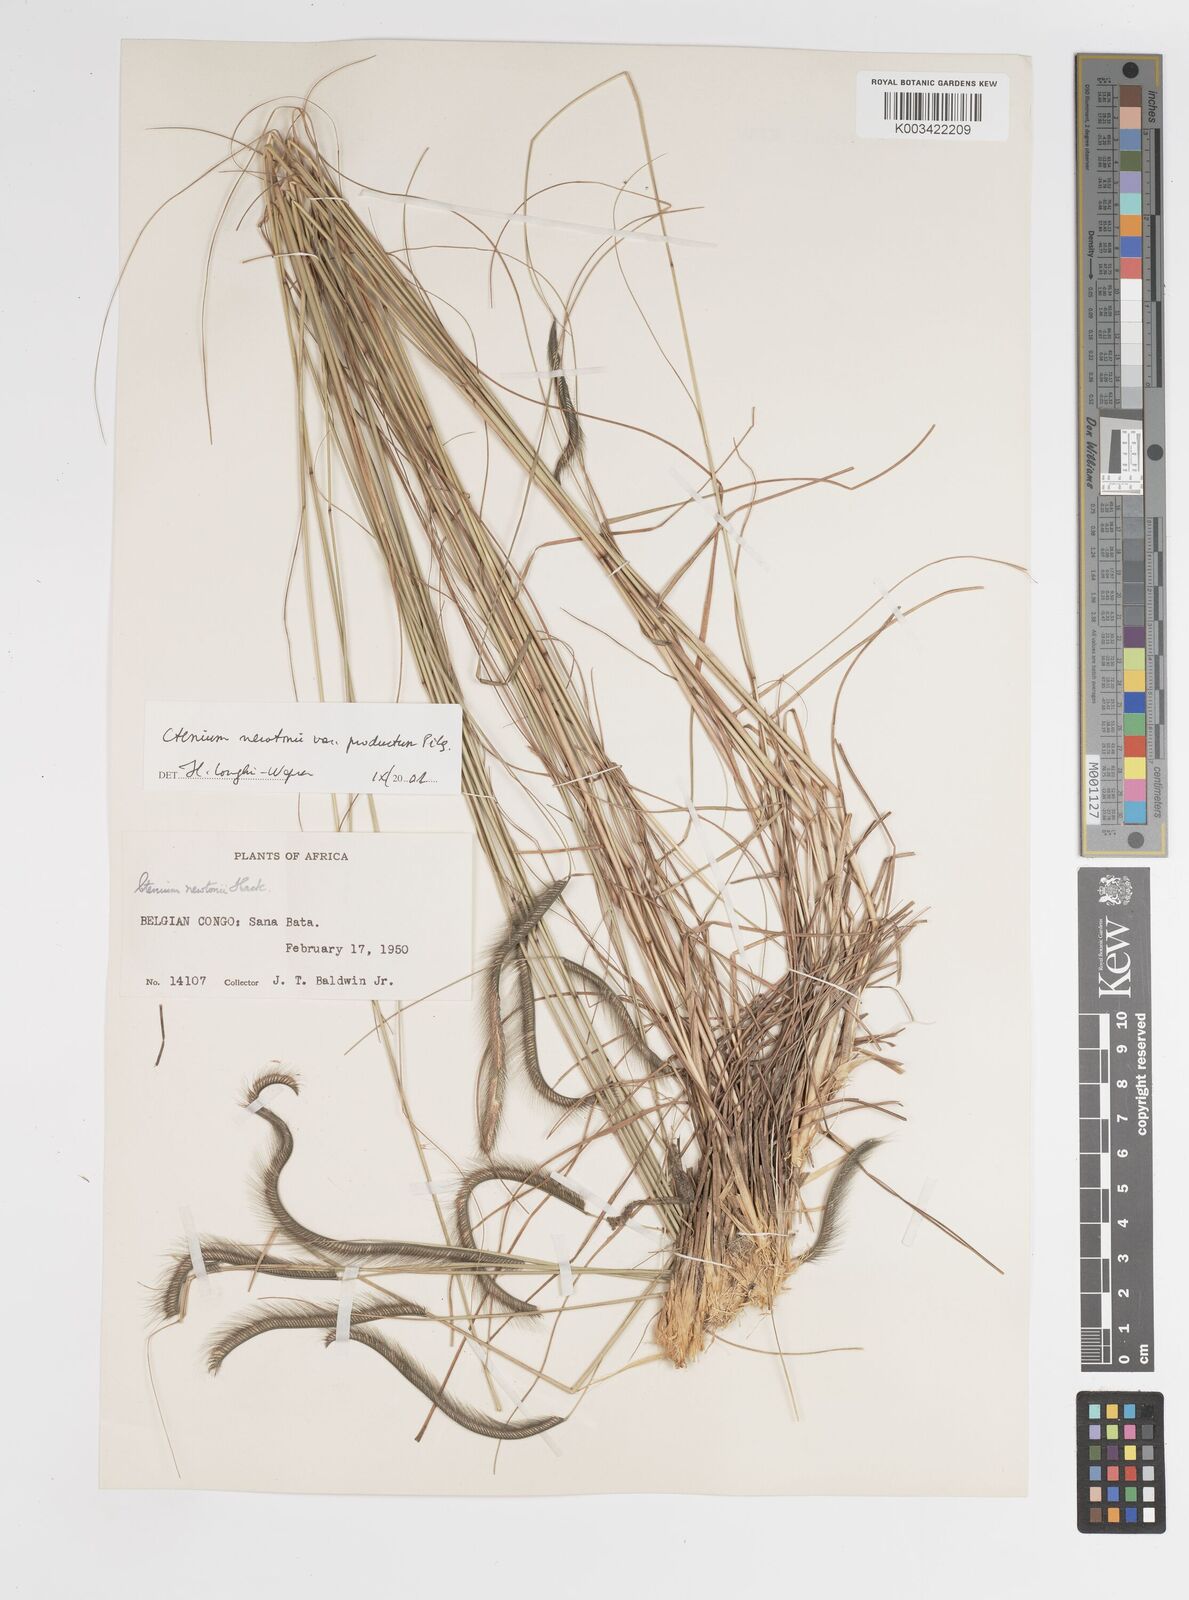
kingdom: Plantae
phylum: Tracheophyta
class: Liliopsida
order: Poales
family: Poaceae
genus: Ctenium
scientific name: Ctenium newtonii
